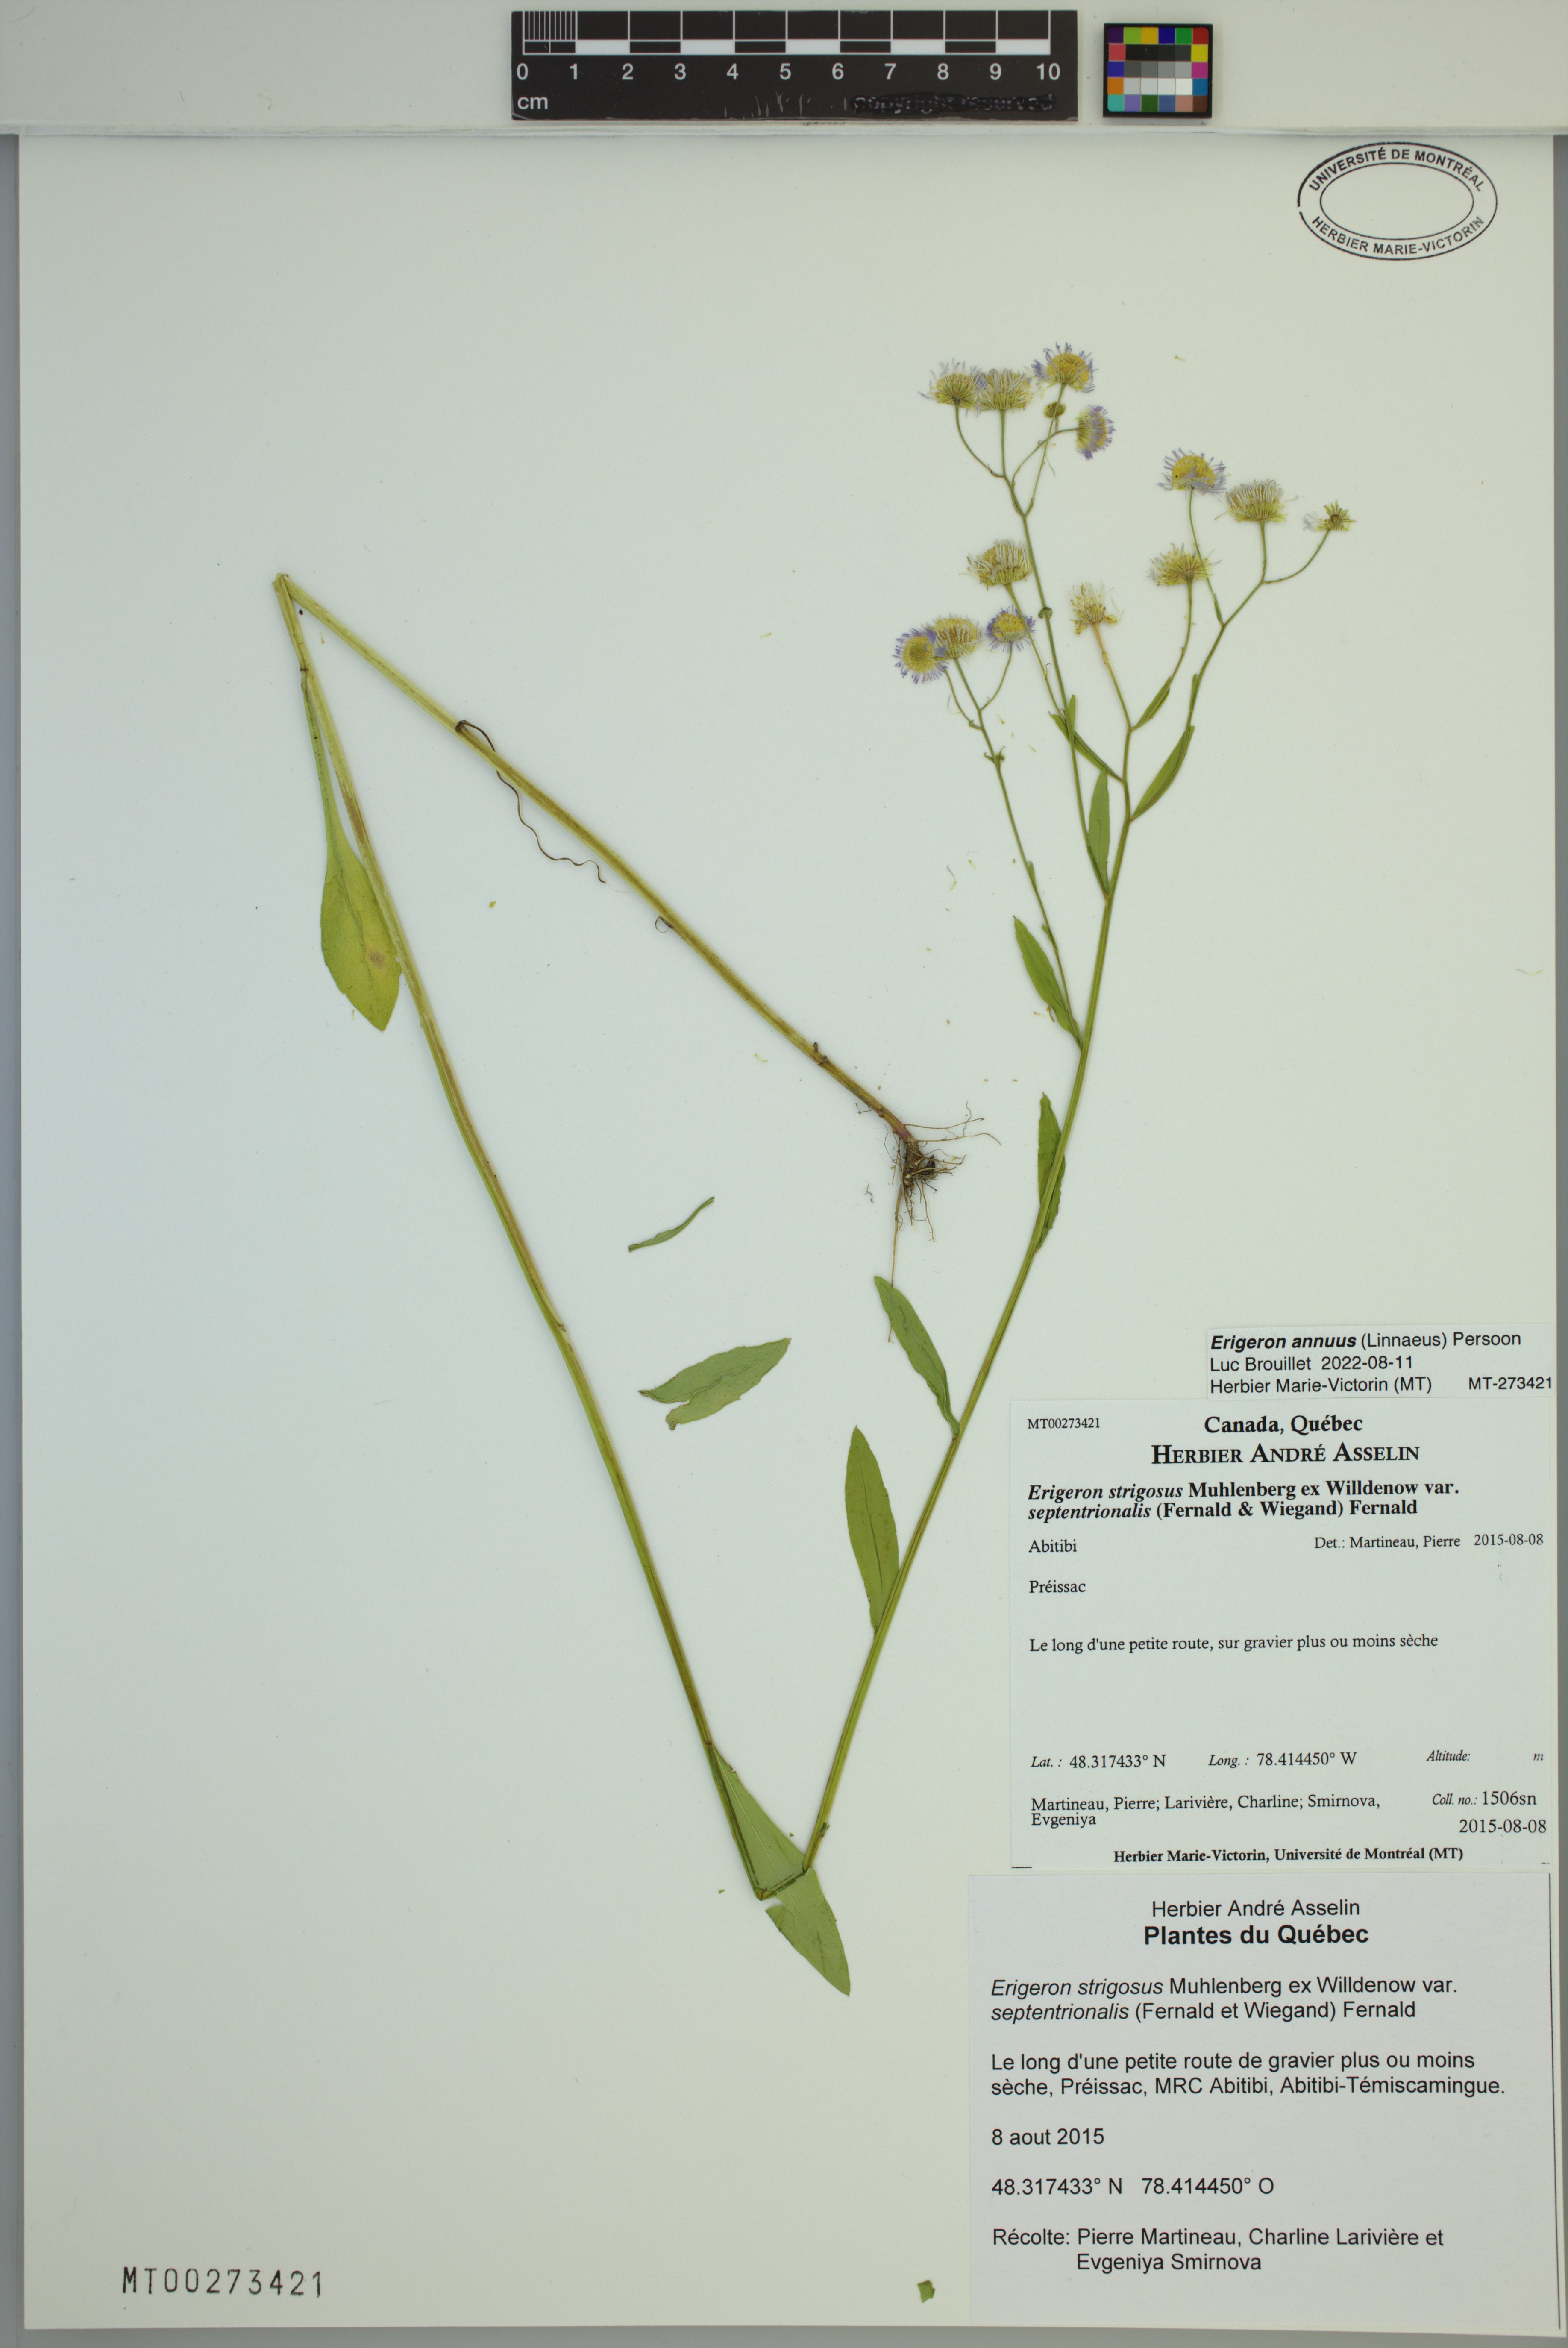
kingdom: Plantae
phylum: Tracheophyta
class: Magnoliopsida
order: Asterales
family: Asteraceae
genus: Erigeron
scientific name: Erigeron annuus
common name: Tall fleabane
